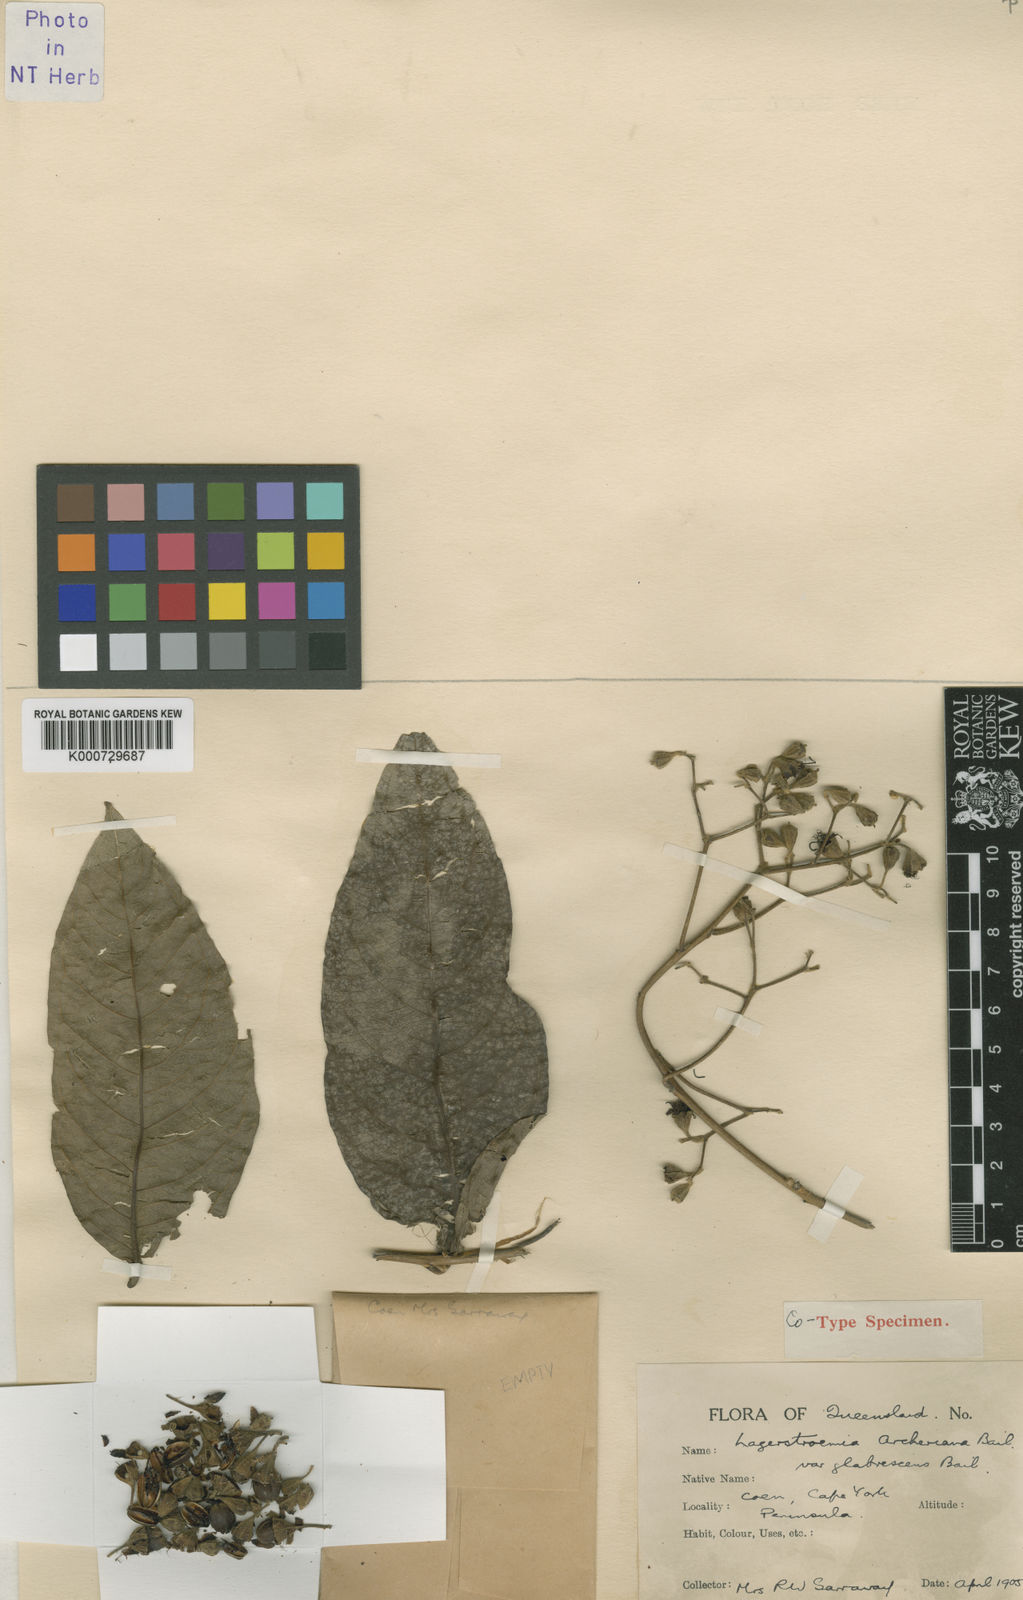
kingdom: Plantae
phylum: Tracheophyta
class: Magnoliopsida
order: Myrtales
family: Lythraceae
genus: Lagerstroemia
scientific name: Lagerstroemia engleriana
